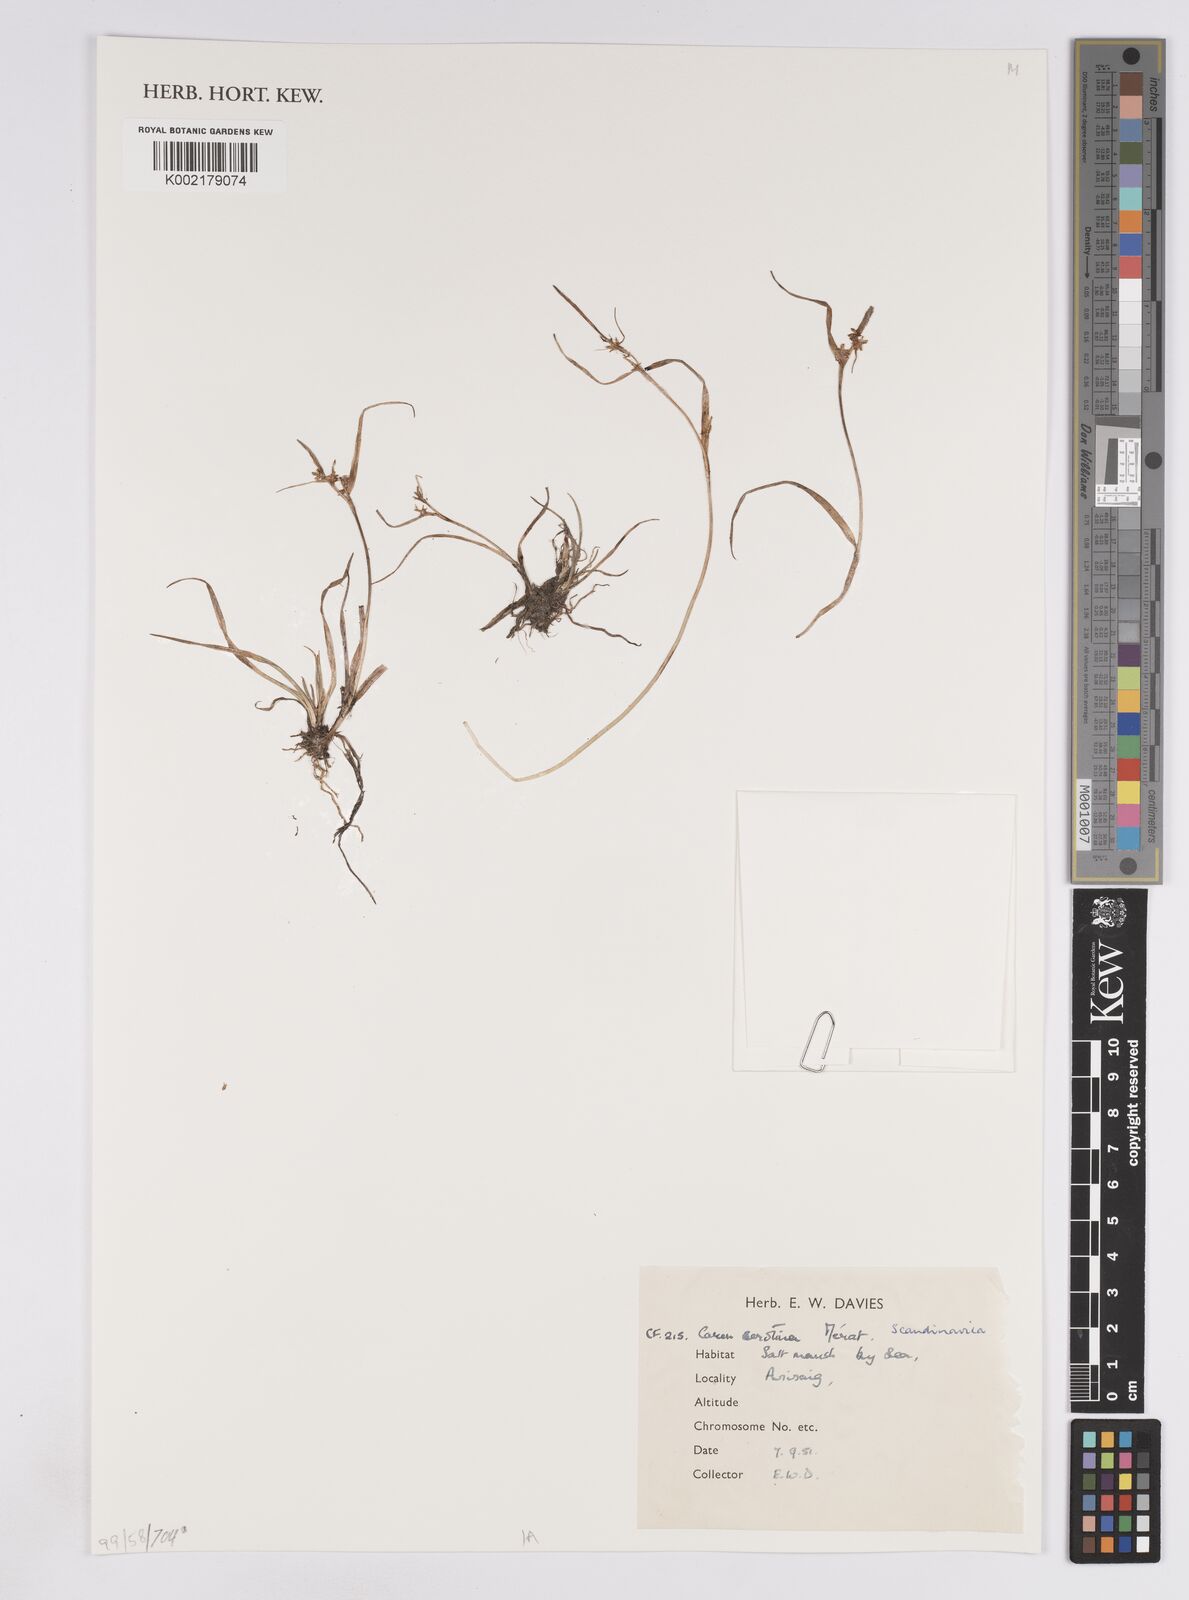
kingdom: Plantae
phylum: Tracheophyta
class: Liliopsida
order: Poales
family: Cyperaceae
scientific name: Cyperaceae
